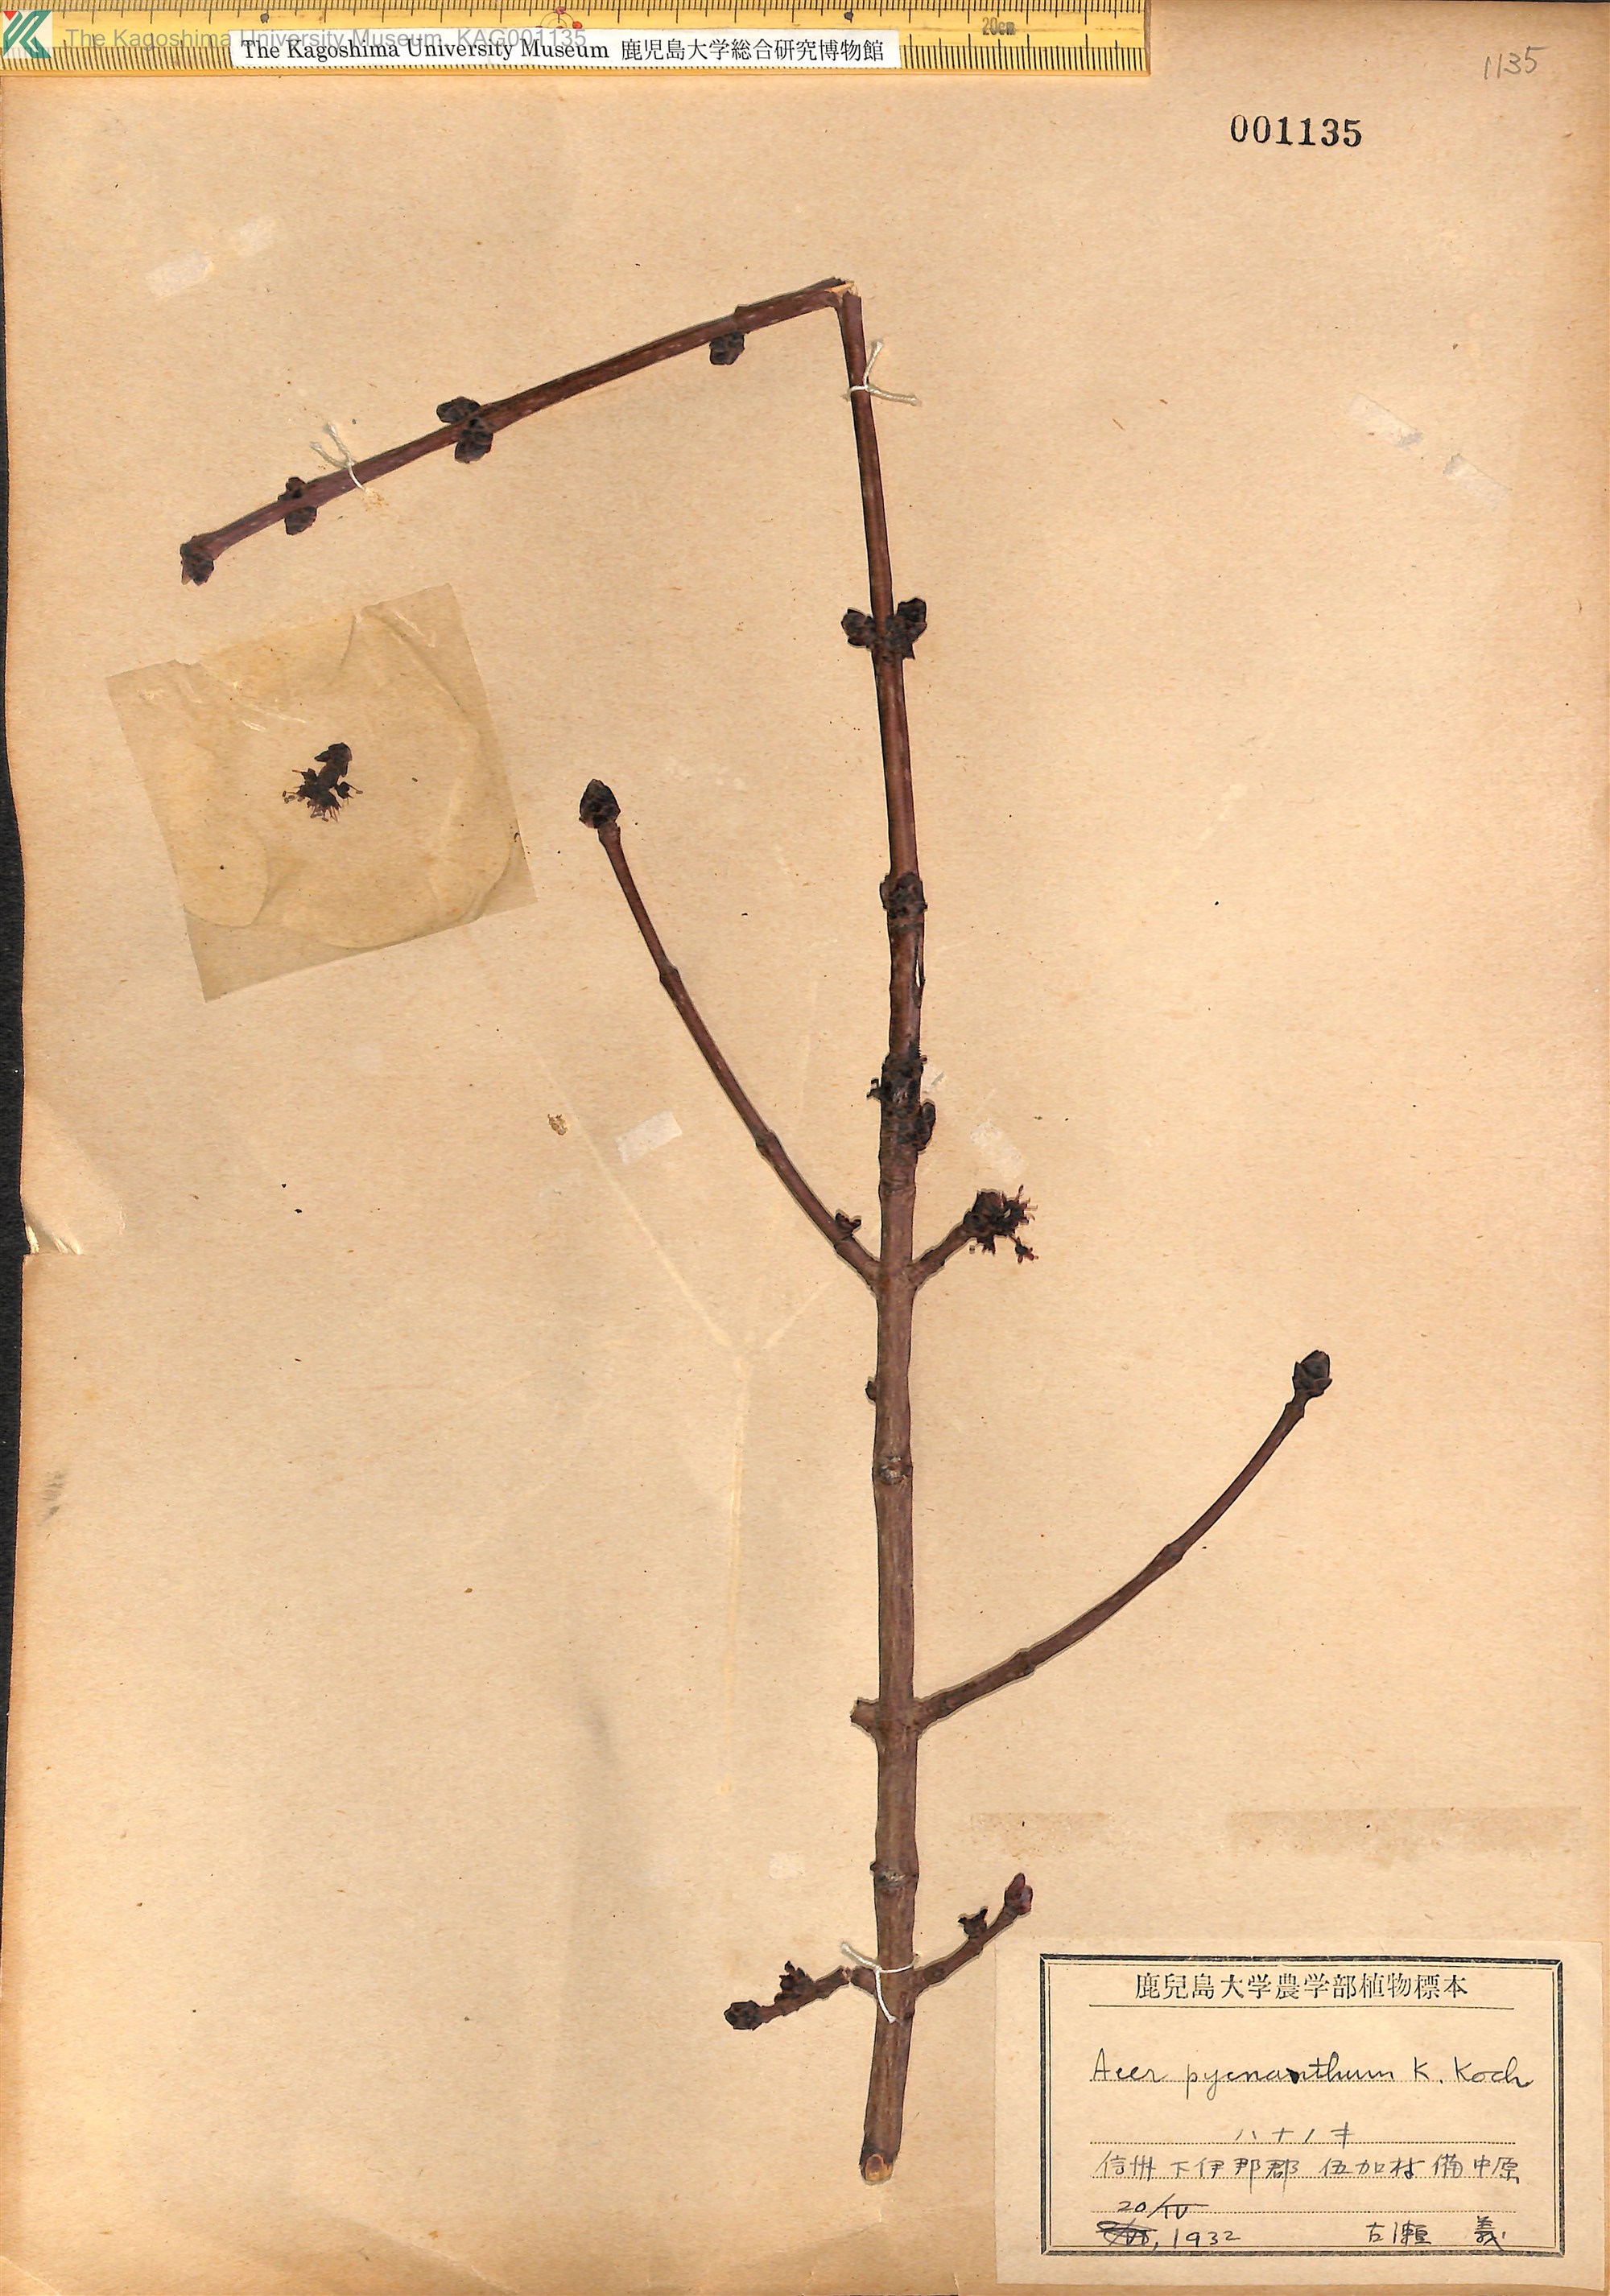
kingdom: Plantae
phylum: Tracheophyta
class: Magnoliopsida
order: Sapindales
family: Sapindaceae
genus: Acer
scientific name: Acer pycnanthum
